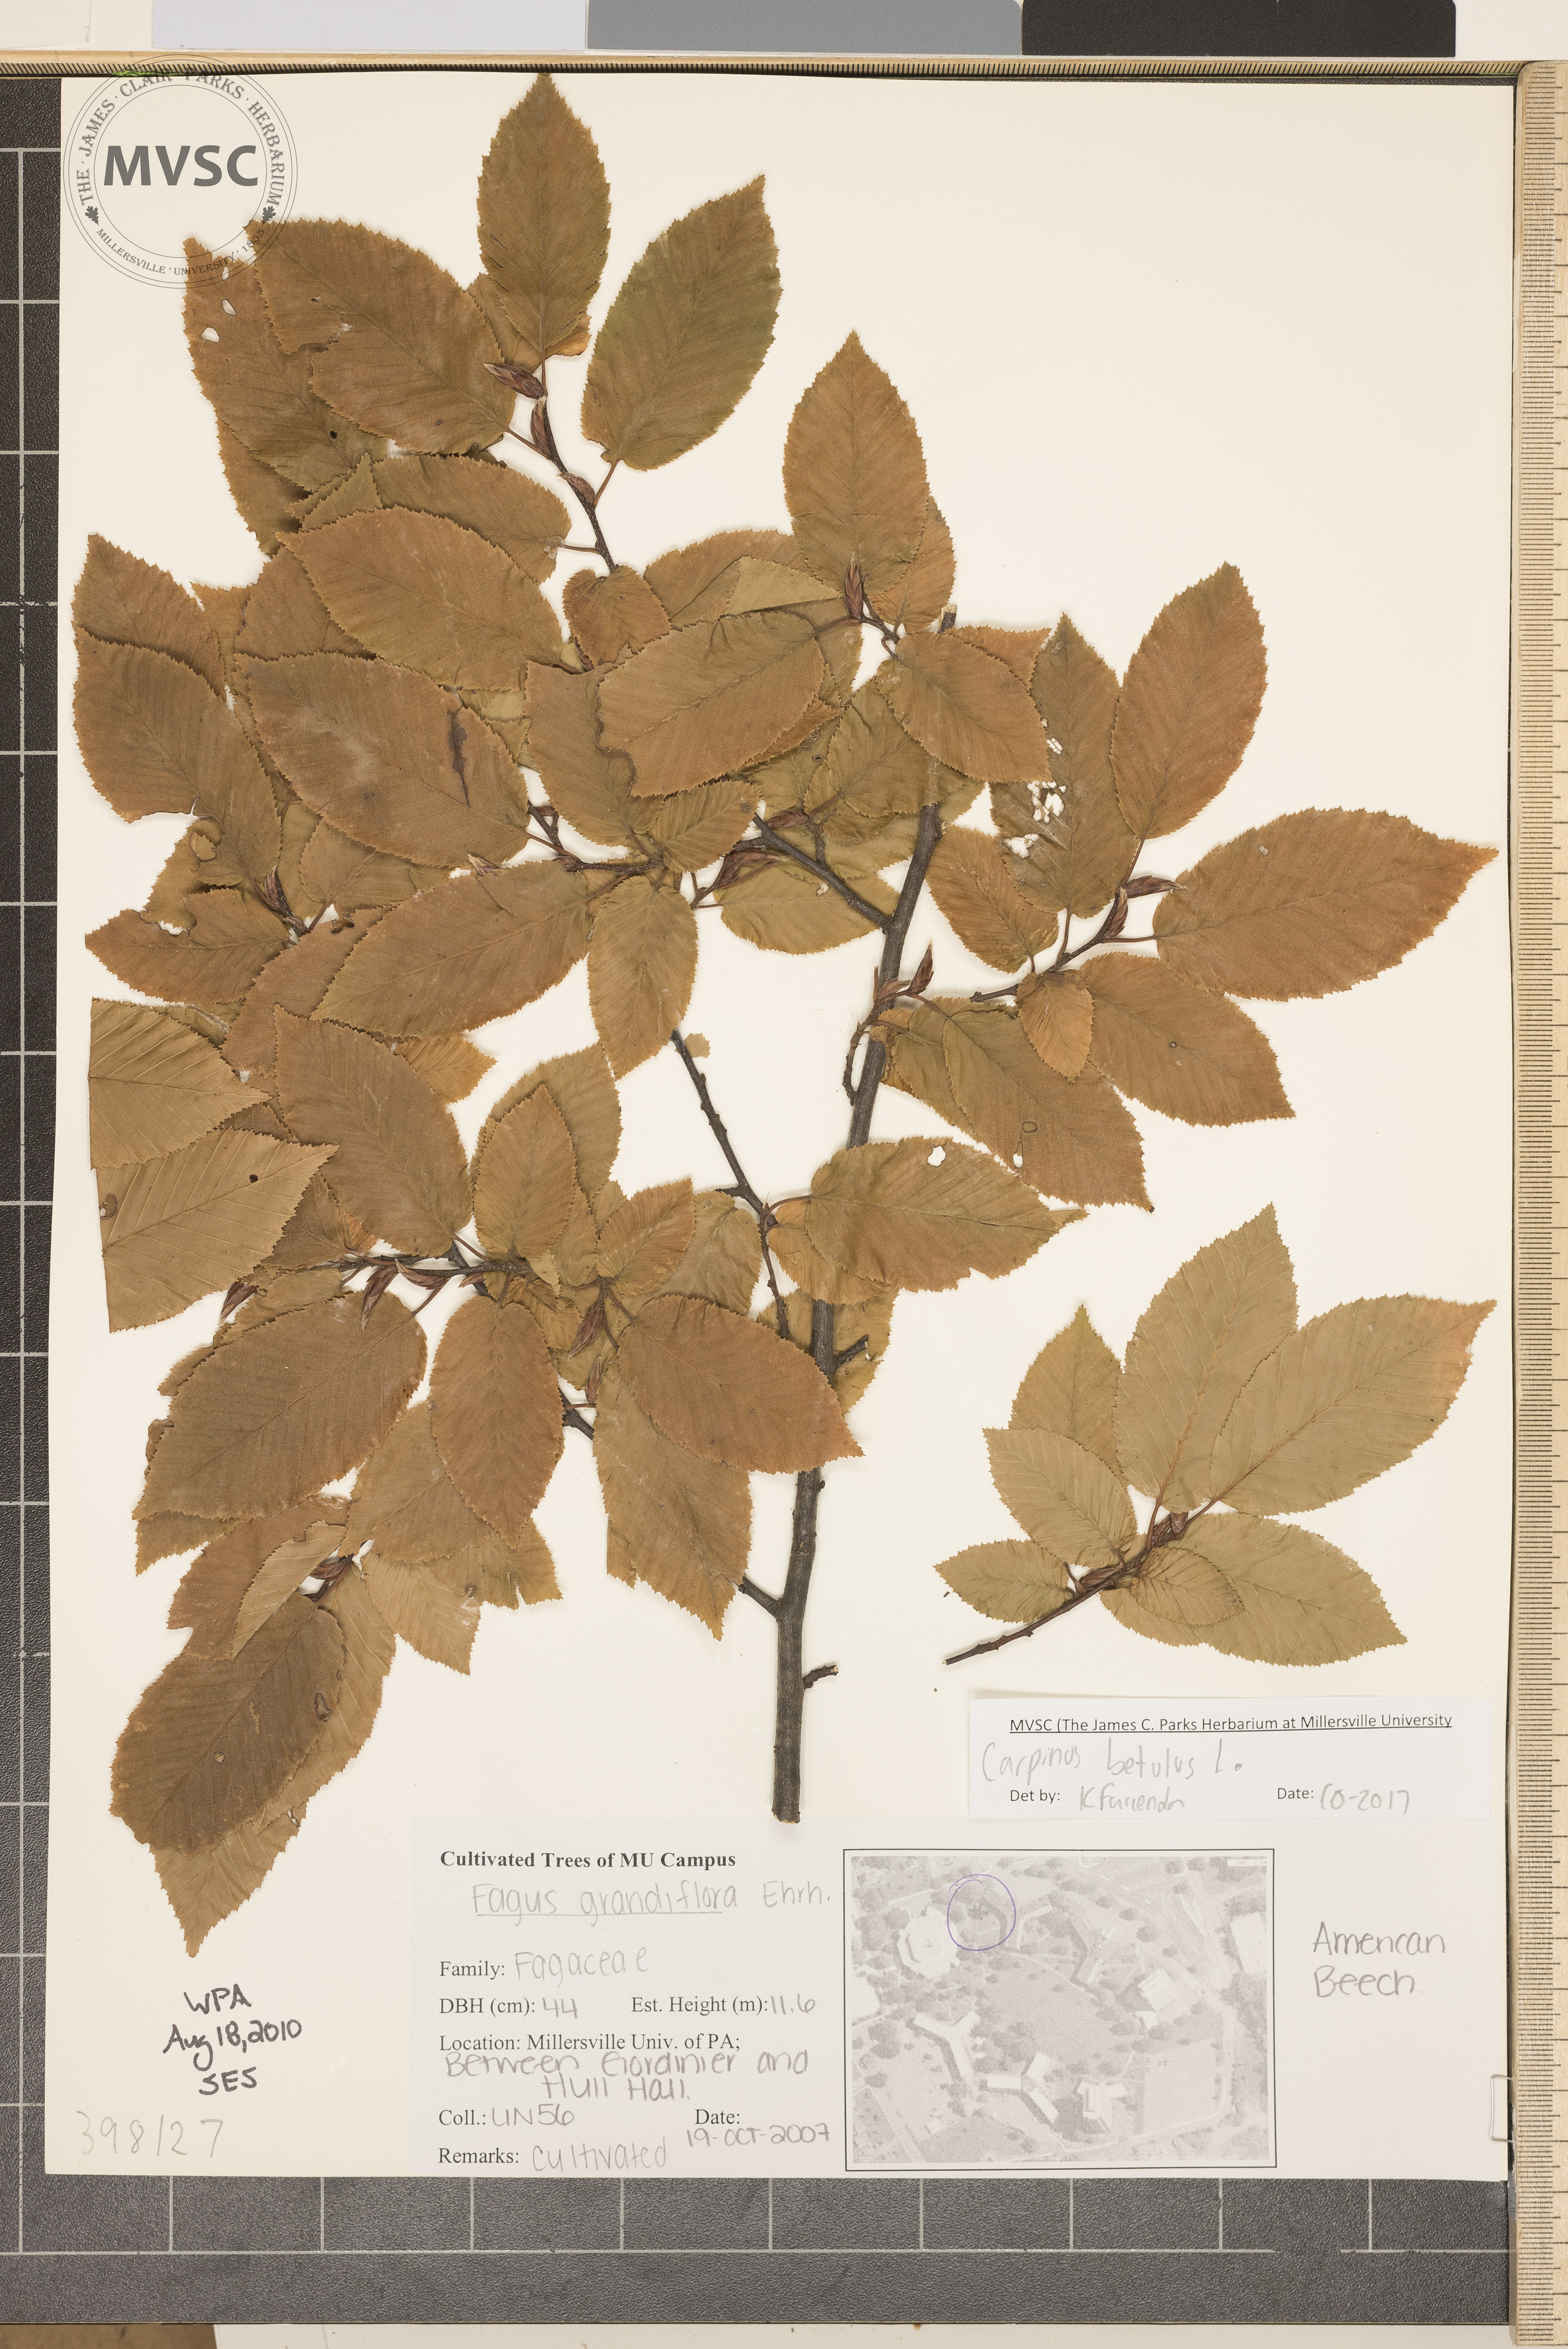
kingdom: Plantae
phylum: Tracheophyta
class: Magnoliopsida
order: Fagales
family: Betulaceae
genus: Carpinus
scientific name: Carpinus betulus
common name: European hornbeam
